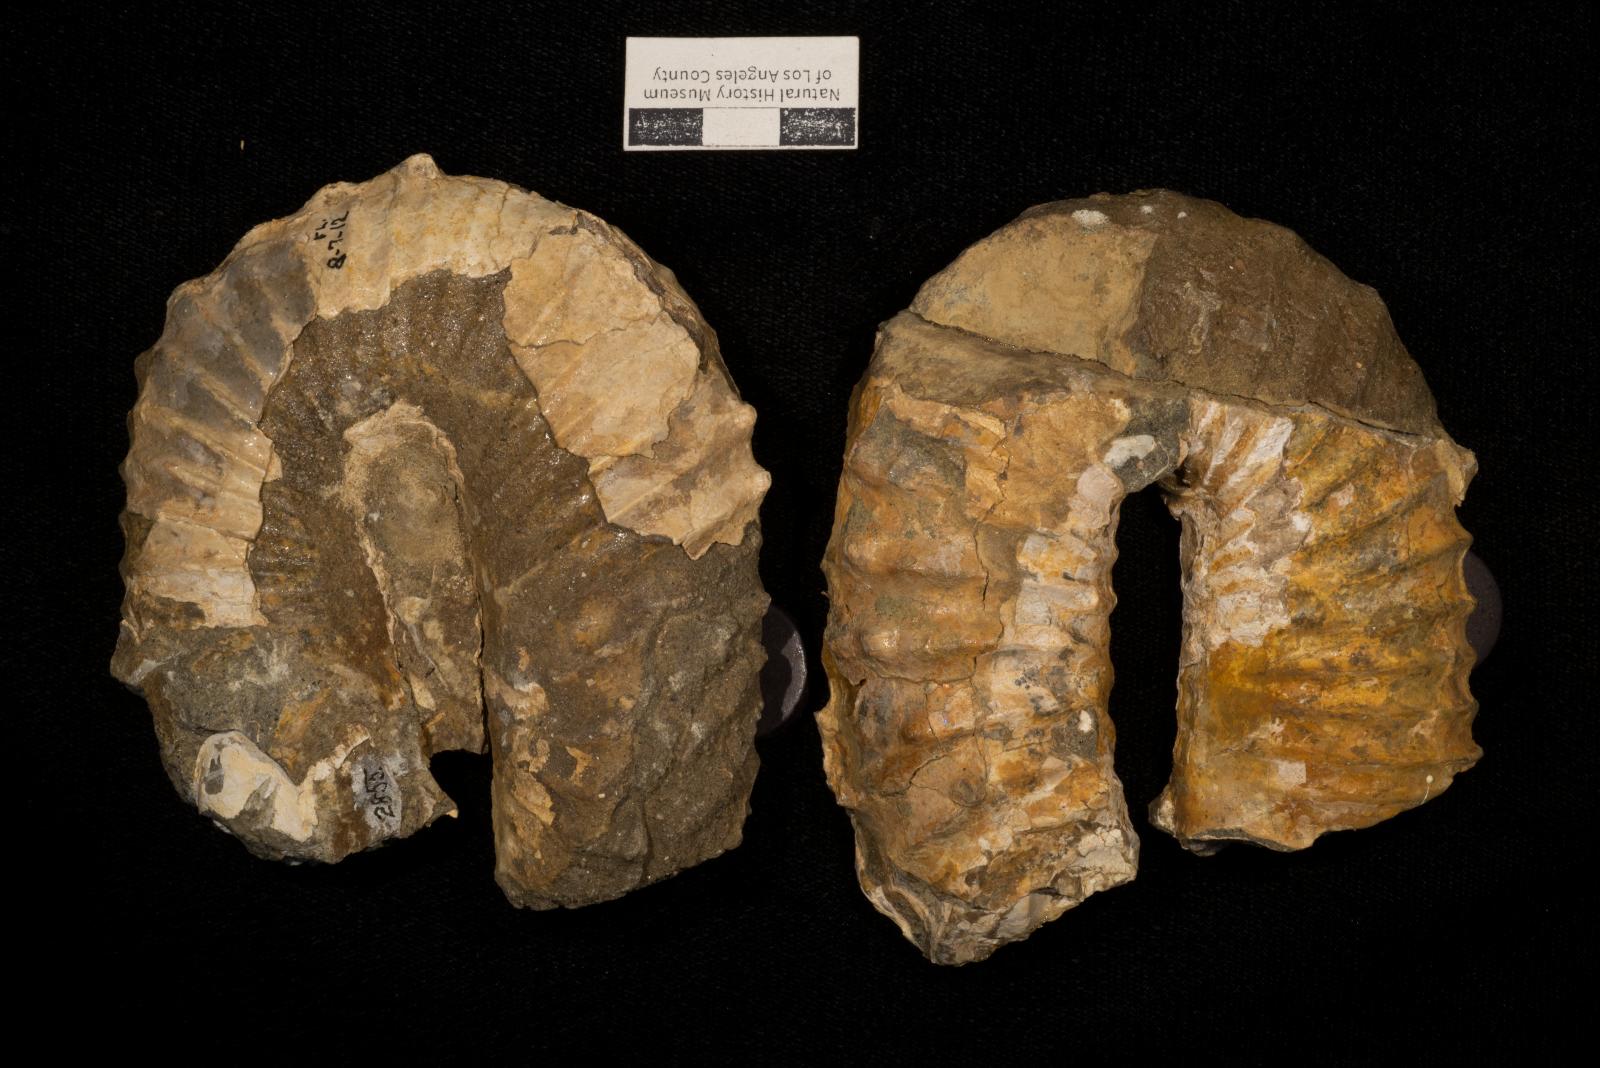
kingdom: Animalia
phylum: Mollusca
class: Cephalopoda
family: Nostoceratidae
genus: Didymoceras
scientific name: Didymoceras draconis
